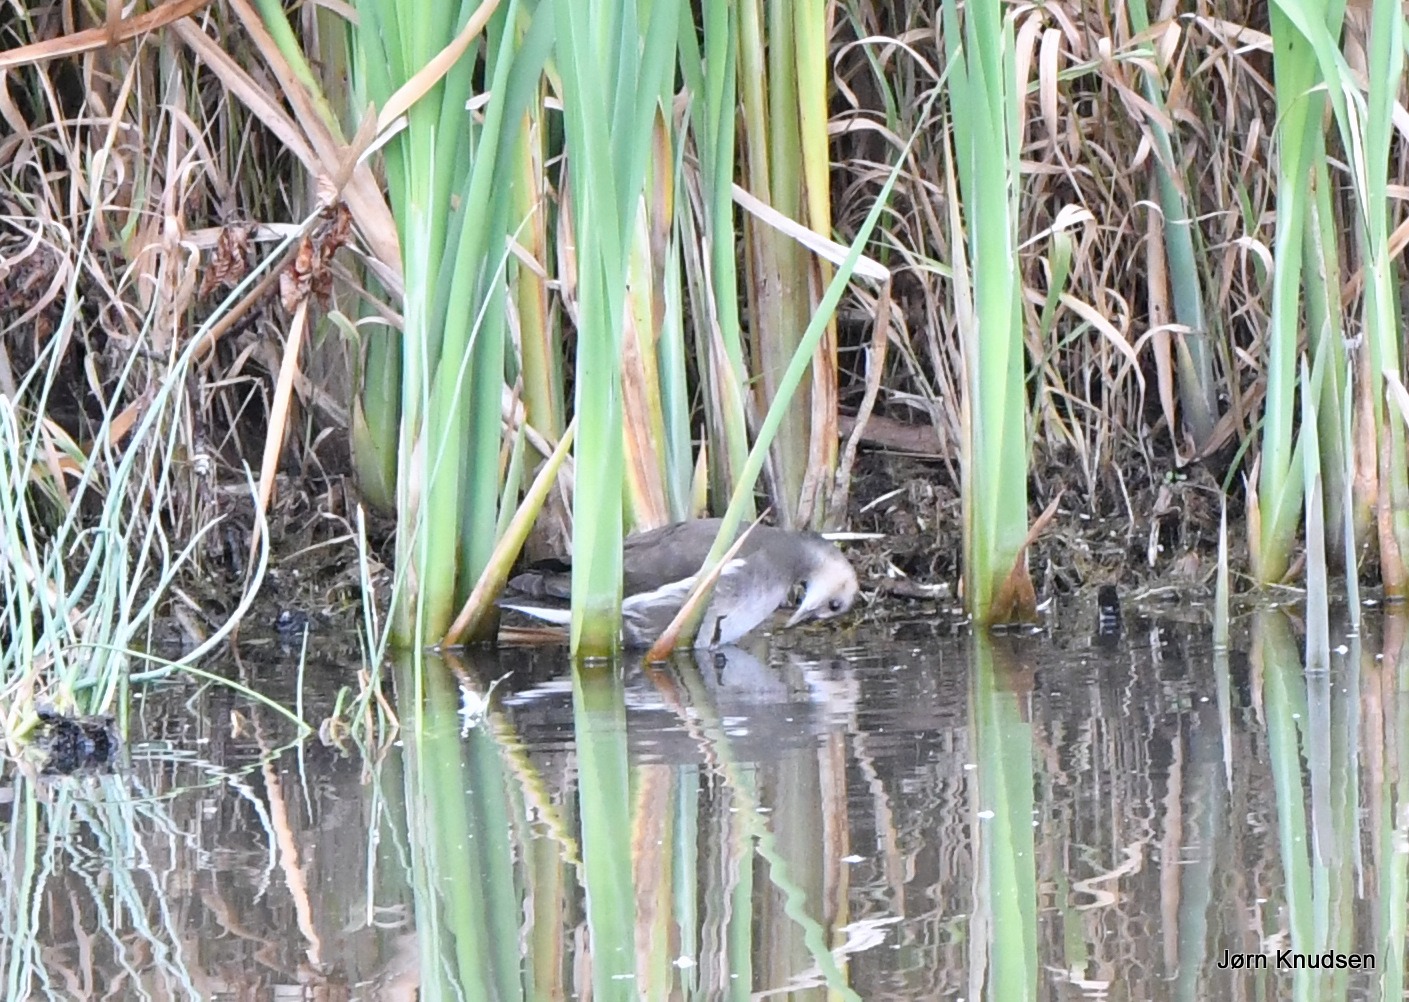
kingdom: Animalia
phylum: Chordata
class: Aves
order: Gruiformes
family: Rallidae
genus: Gallinula
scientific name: Gallinula chloropus
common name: Grønbenet rørhøne
